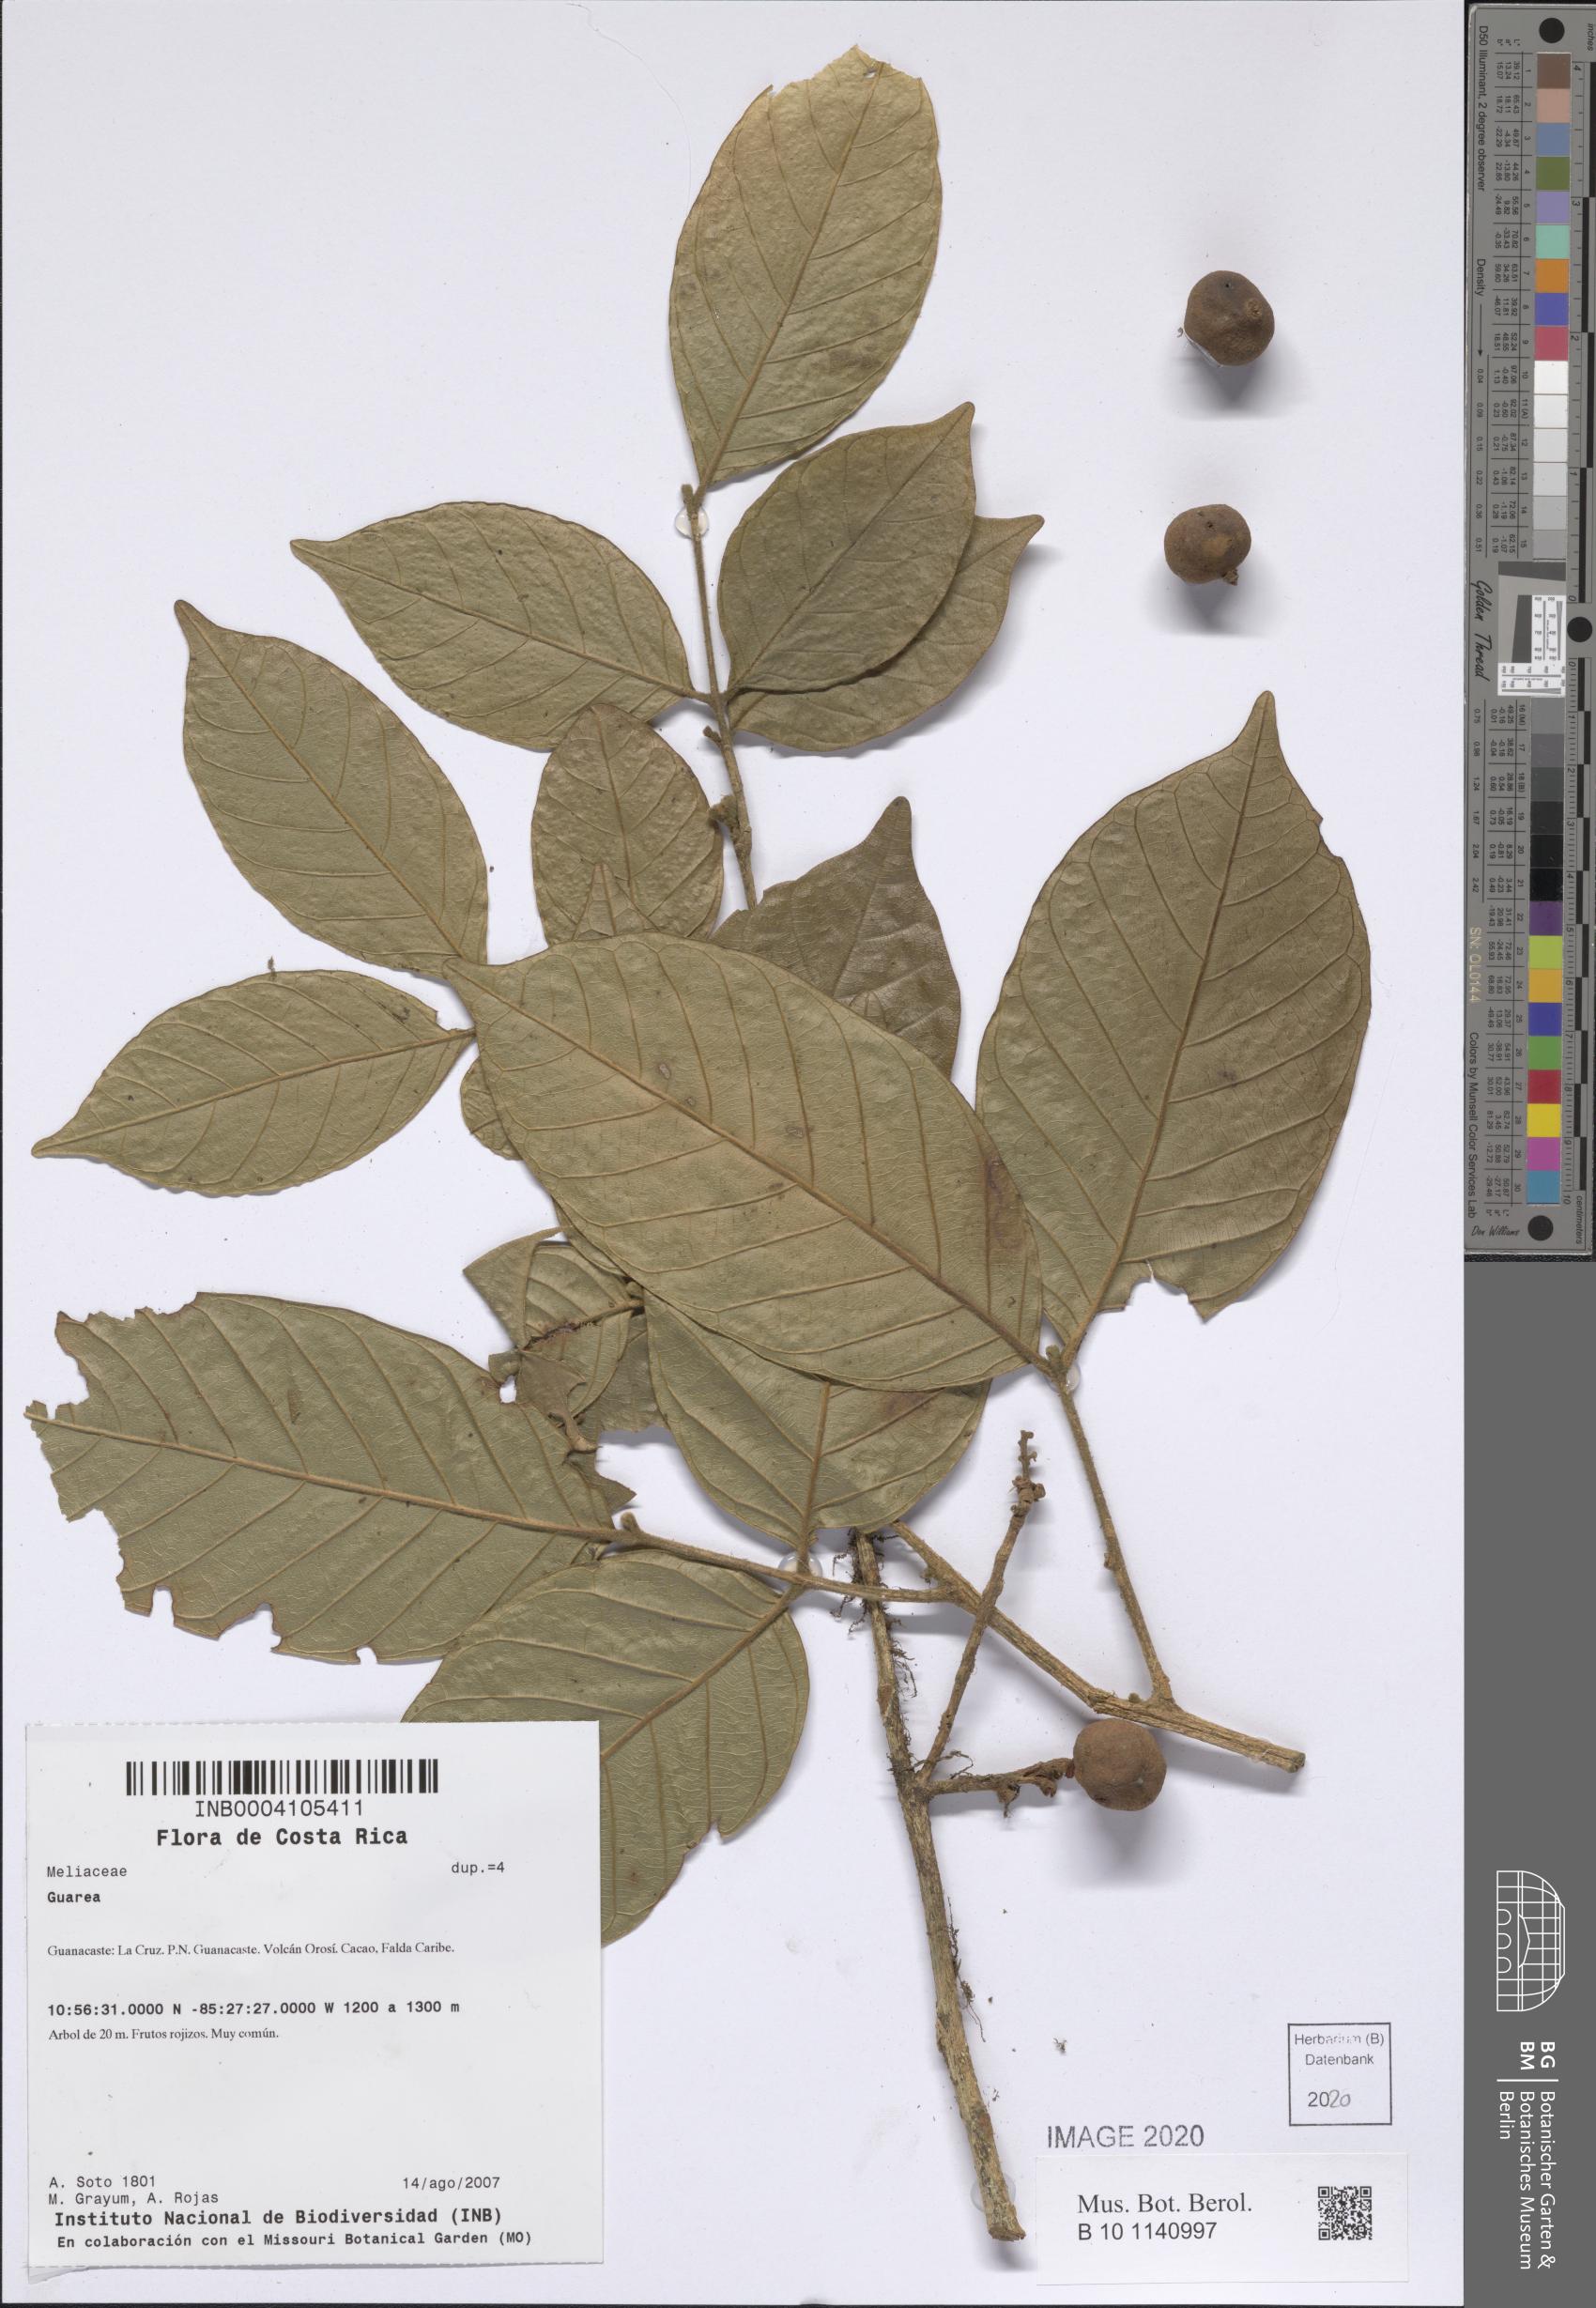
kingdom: Plantae
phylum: Tracheophyta
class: Magnoliopsida
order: Sapindales
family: Meliaceae
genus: Guarea
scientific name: Guarea
